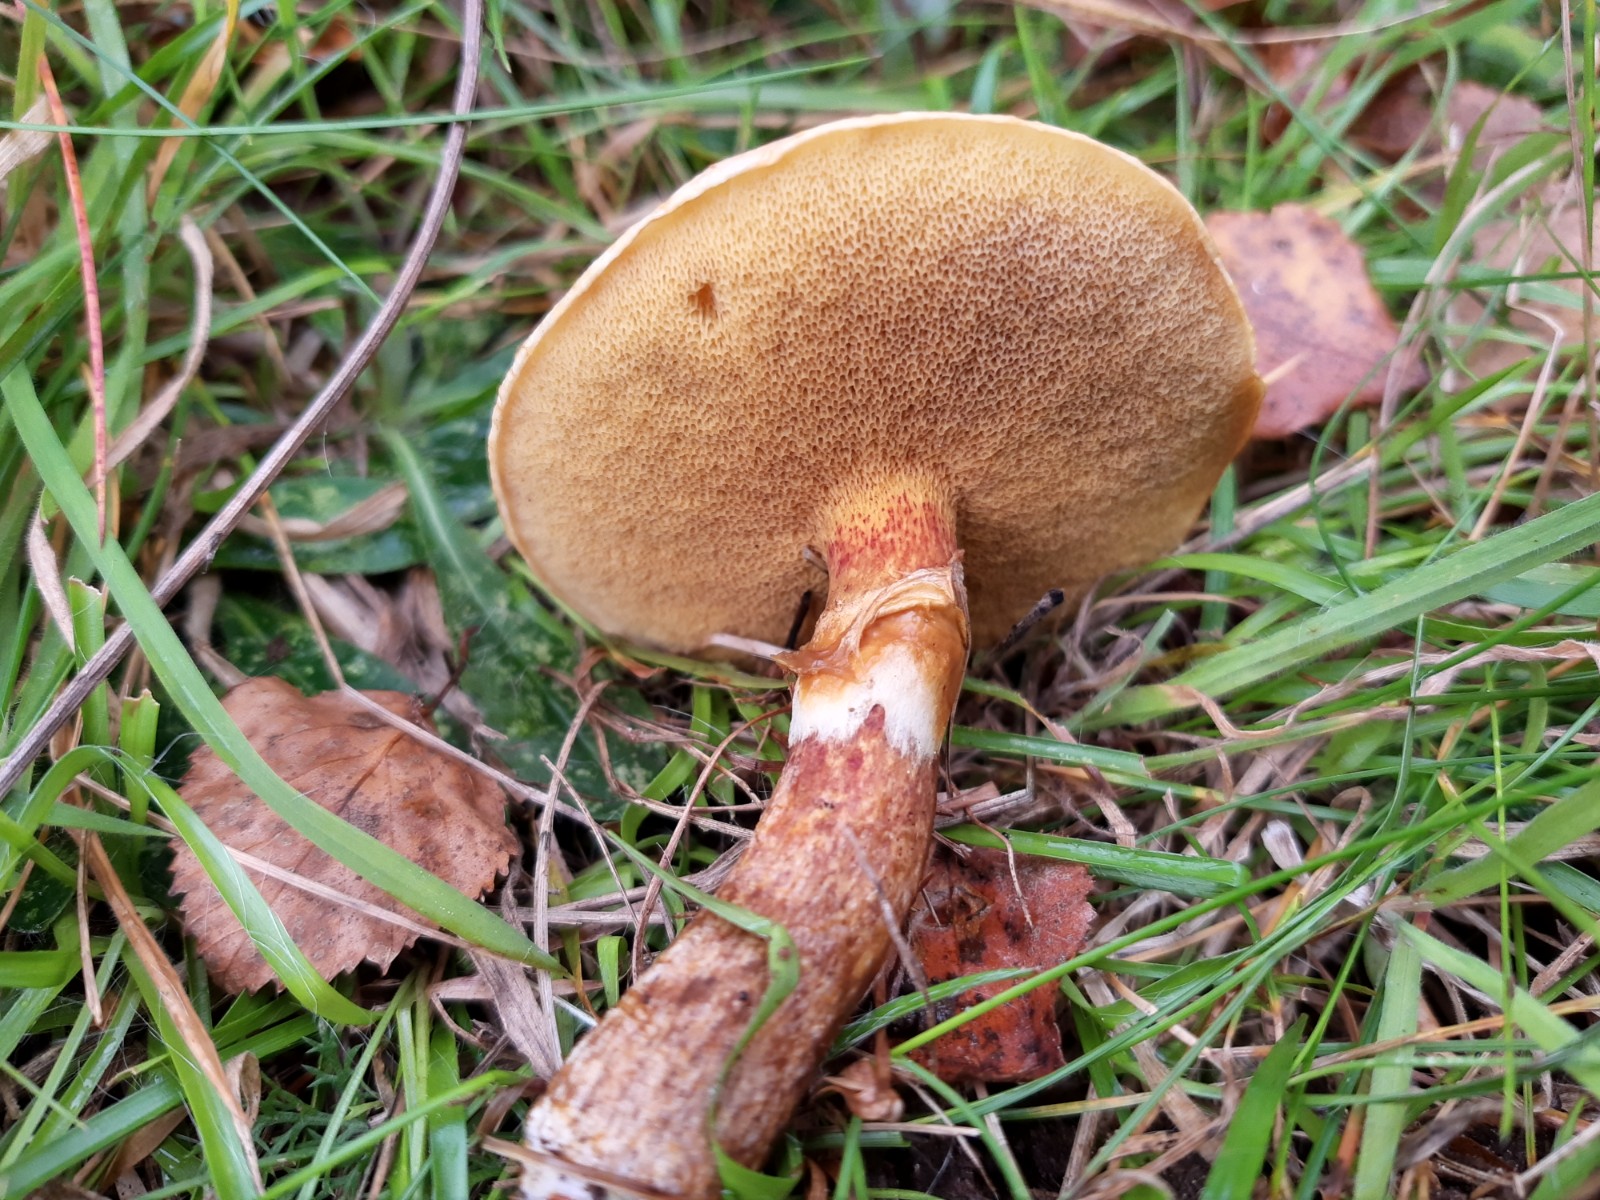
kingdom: Fungi
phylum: Basidiomycota
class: Agaricomycetes
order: Boletales
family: Suillaceae
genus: Suillus
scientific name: Suillus grevillei
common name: lærke-slimrørhat
